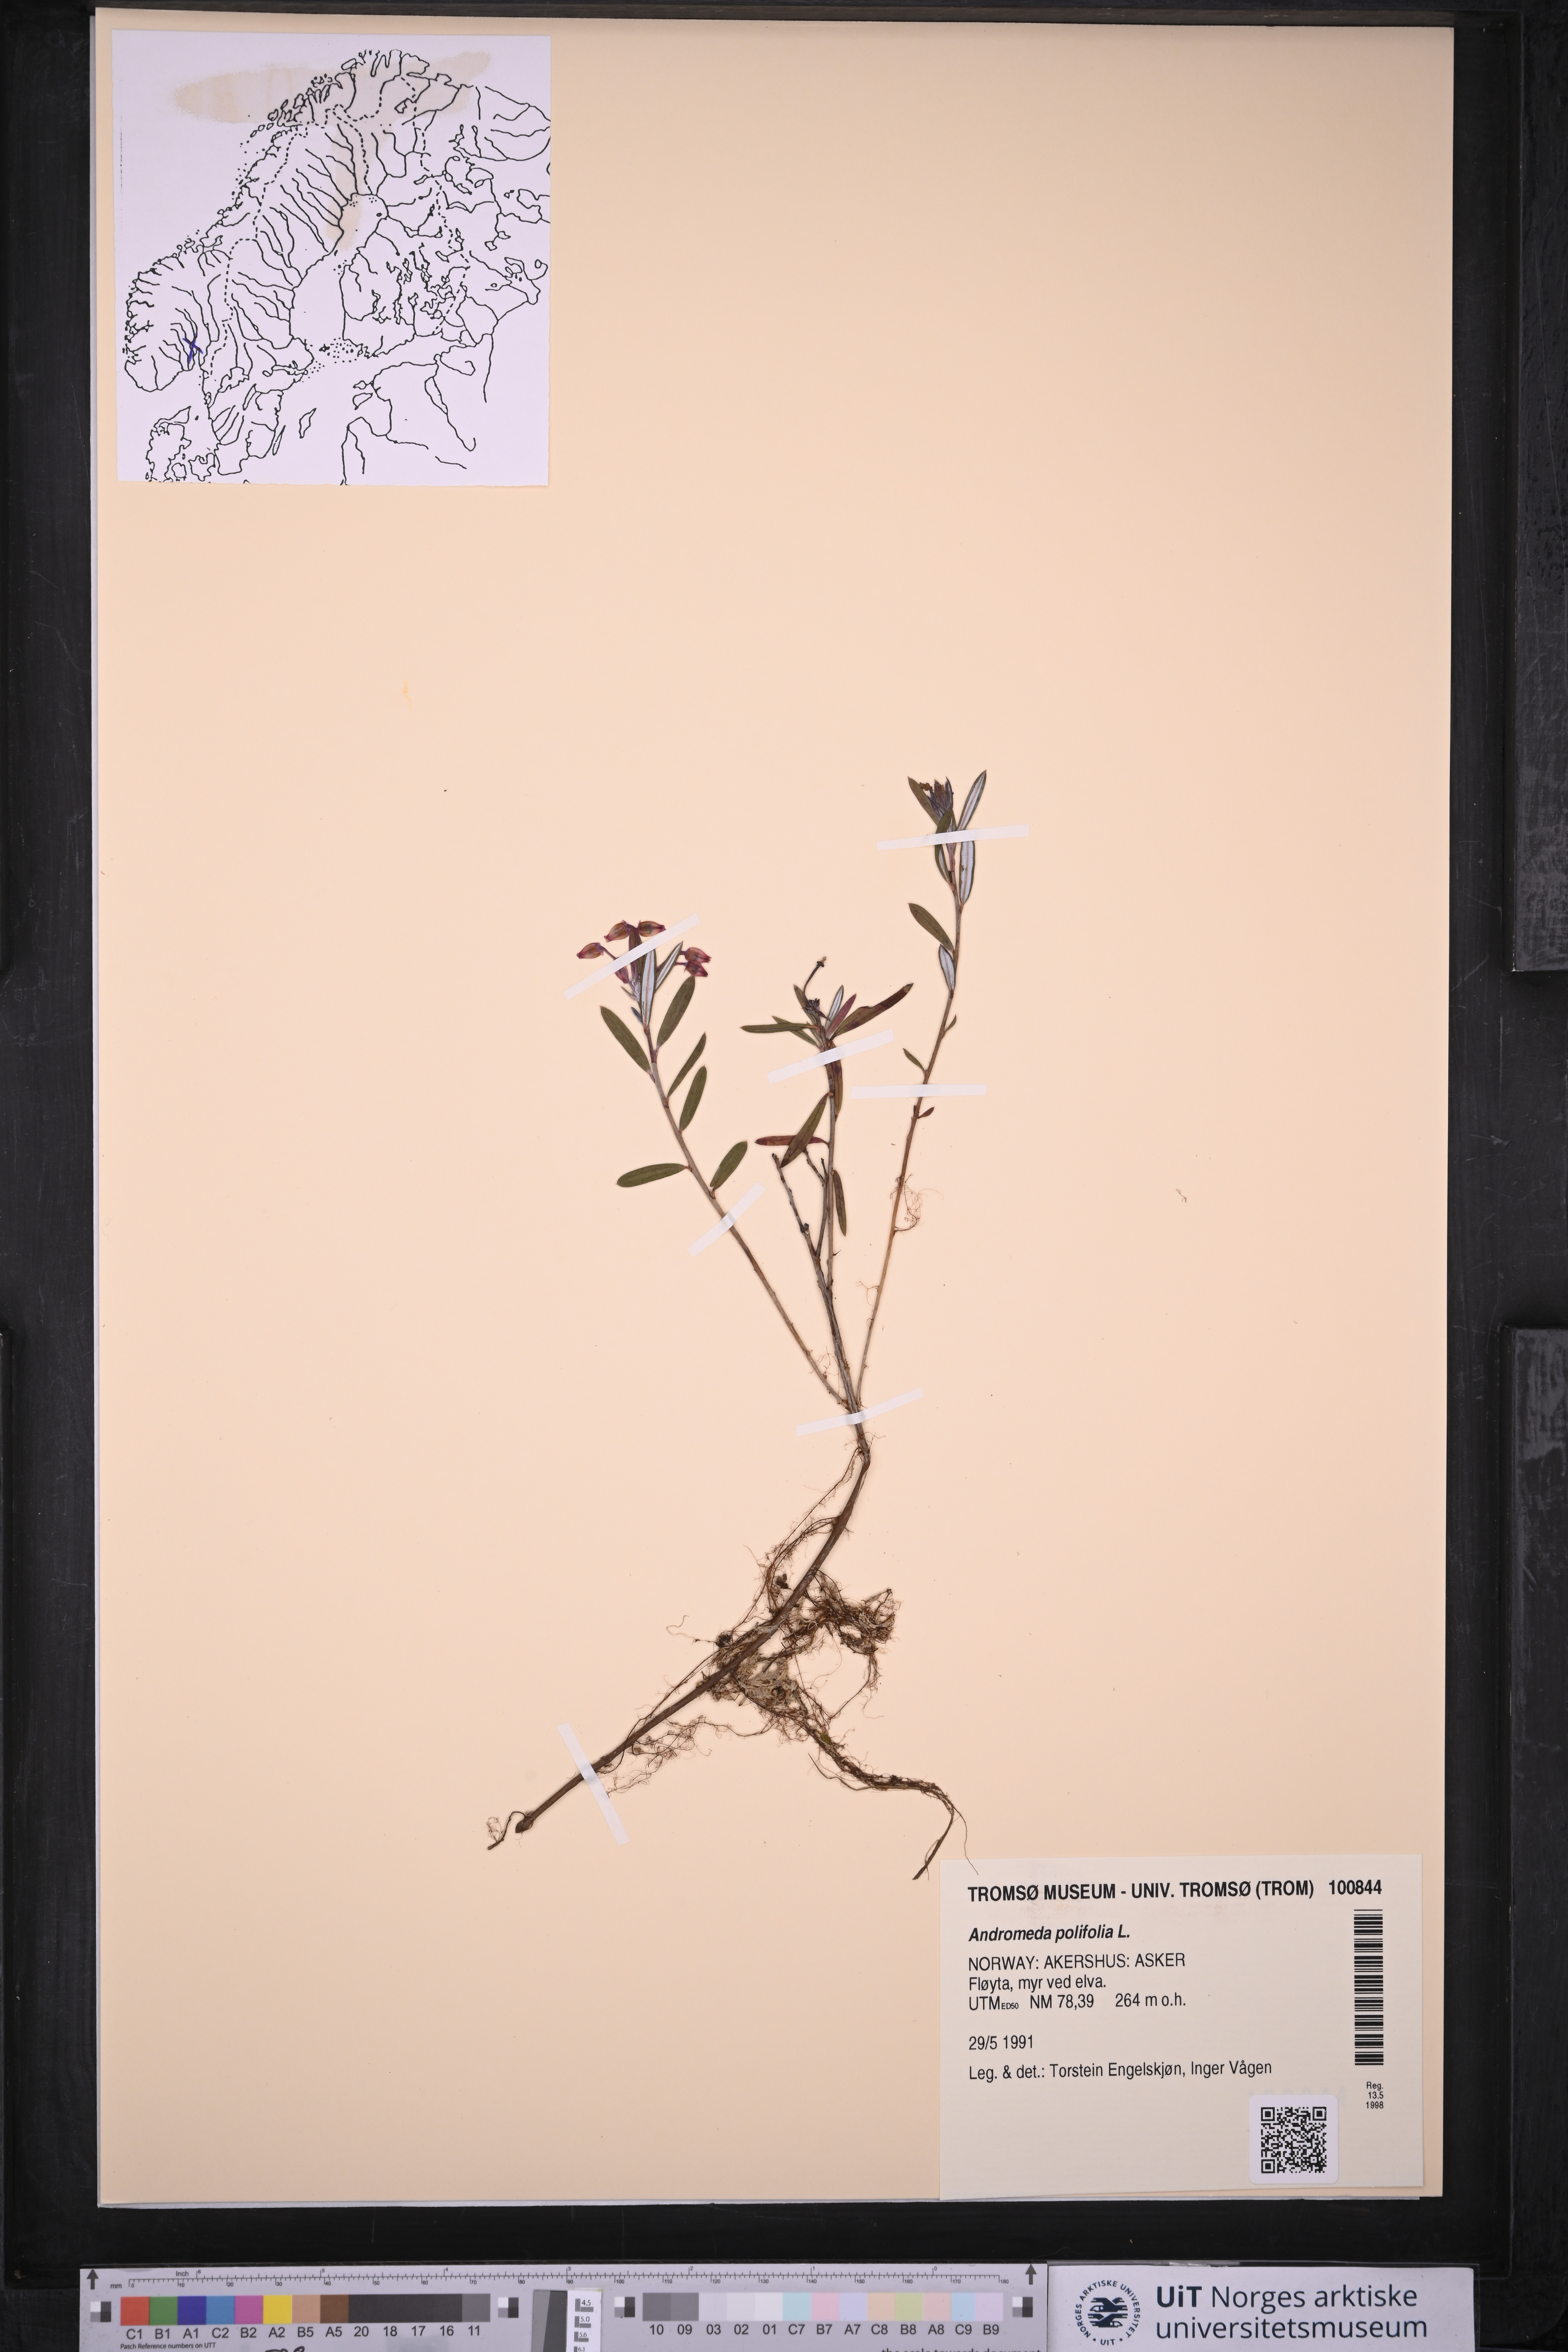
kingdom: Plantae
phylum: Tracheophyta
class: Magnoliopsida
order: Ericales
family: Ericaceae
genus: Andromeda
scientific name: Andromeda polifolia
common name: Bog-rosemary
